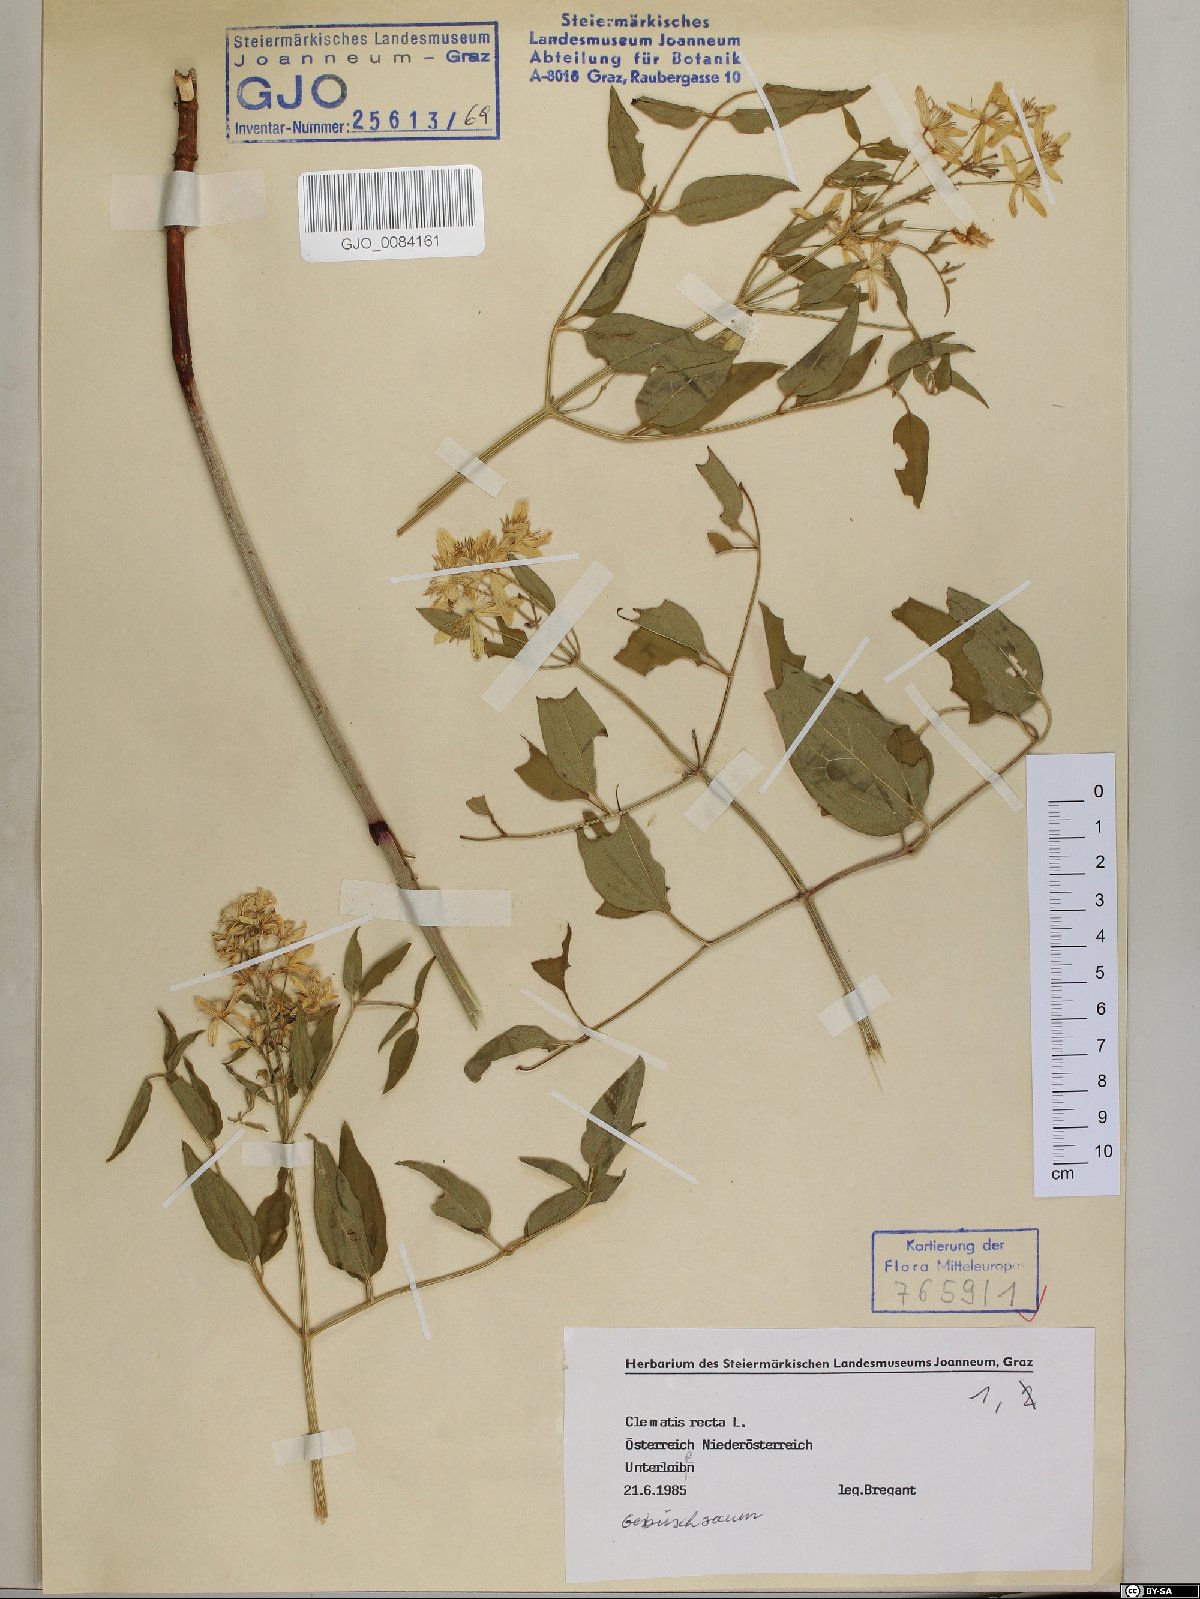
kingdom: Plantae
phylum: Tracheophyta
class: Magnoliopsida
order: Ranunculales
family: Ranunculaceae
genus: Clematis
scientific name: Clematis recta
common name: Ground clematis
